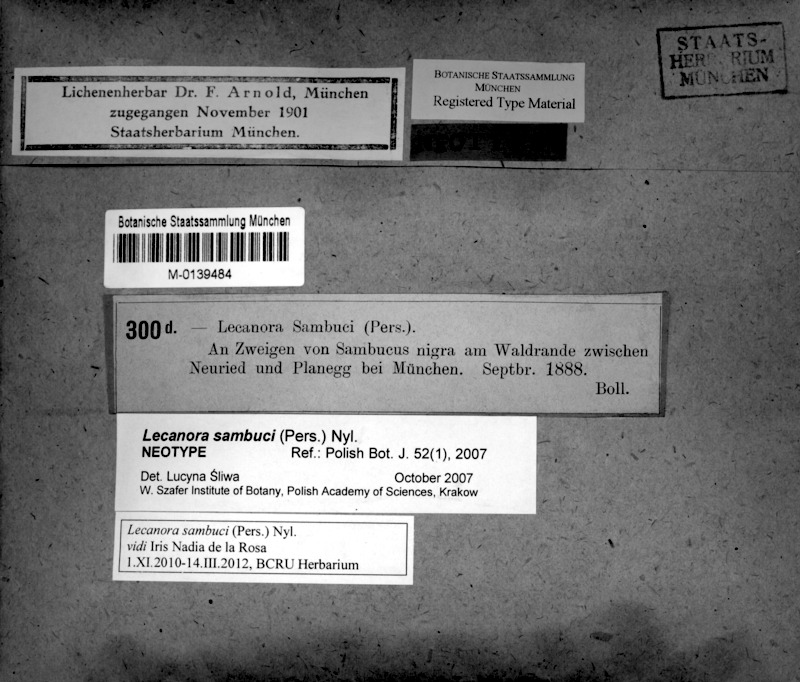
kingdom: Fungi
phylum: Ascomycota
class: Lecanoromycetes
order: Lecanorales
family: Lecanoraceae
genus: Polyozosia
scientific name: Polyozosia sambuci
